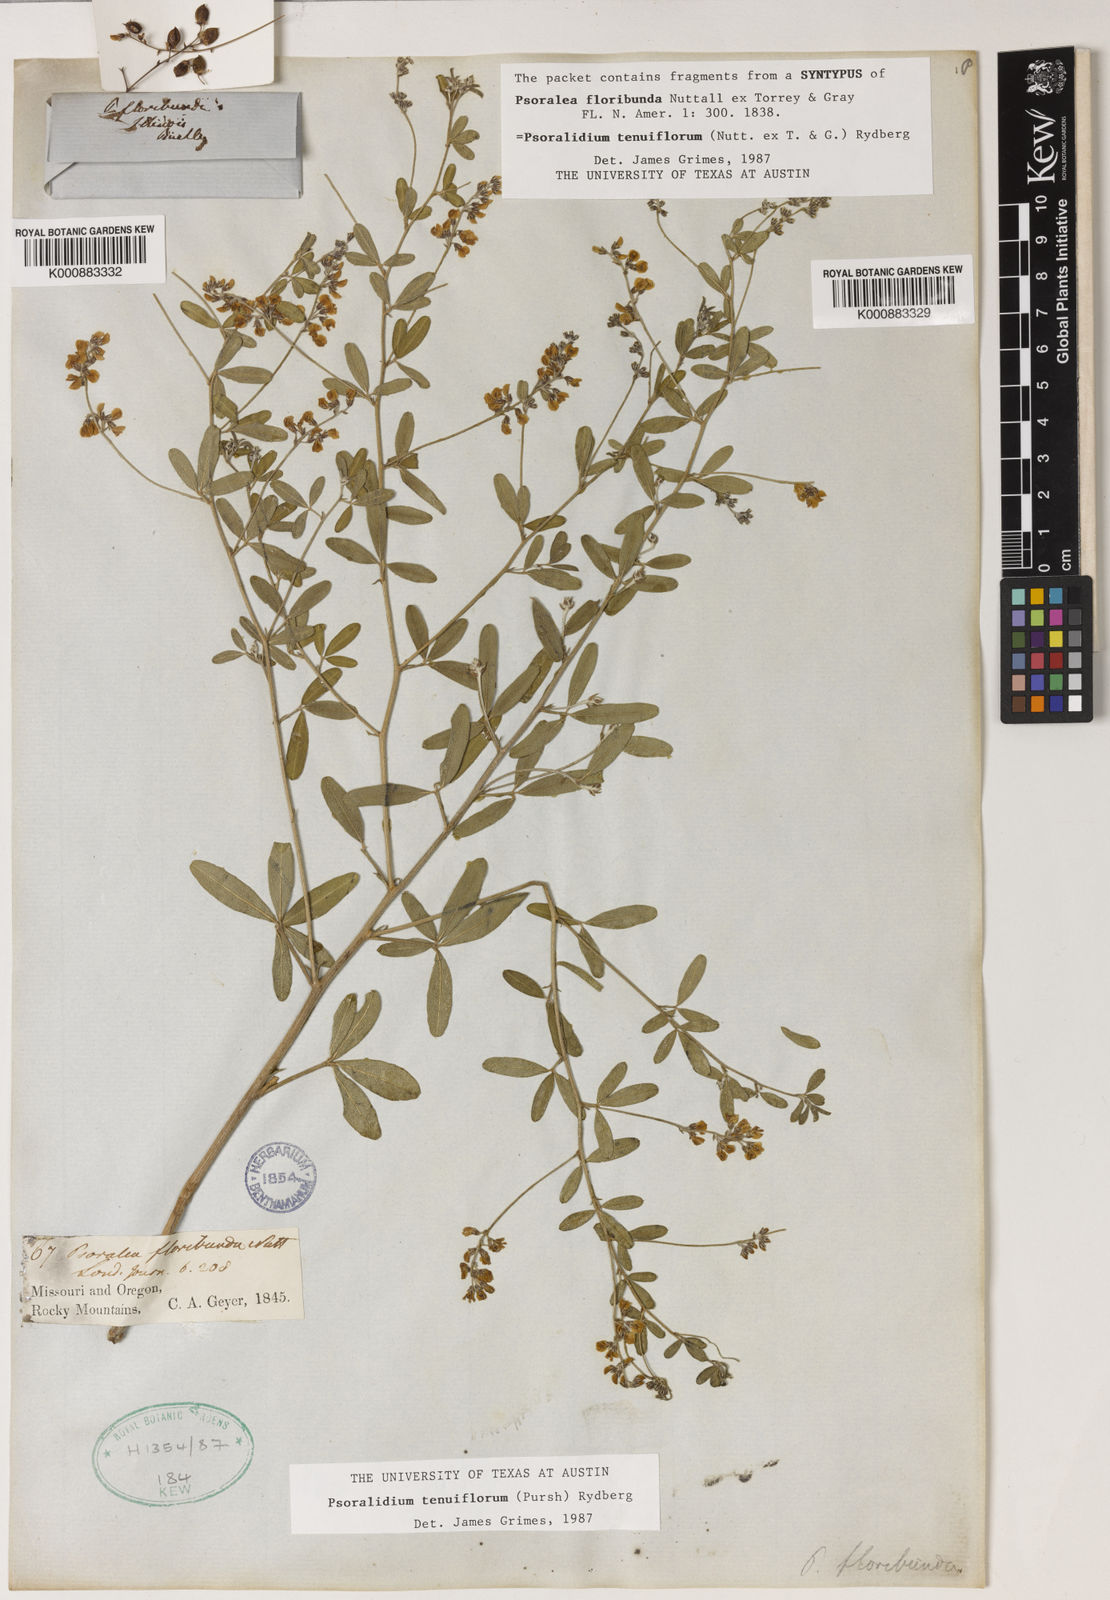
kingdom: Plantae
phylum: Tracheophyta
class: Magnoliopsida
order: Fabales
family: Fabaceae
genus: Pediomelum
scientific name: Pediomelum tenuiflorum
